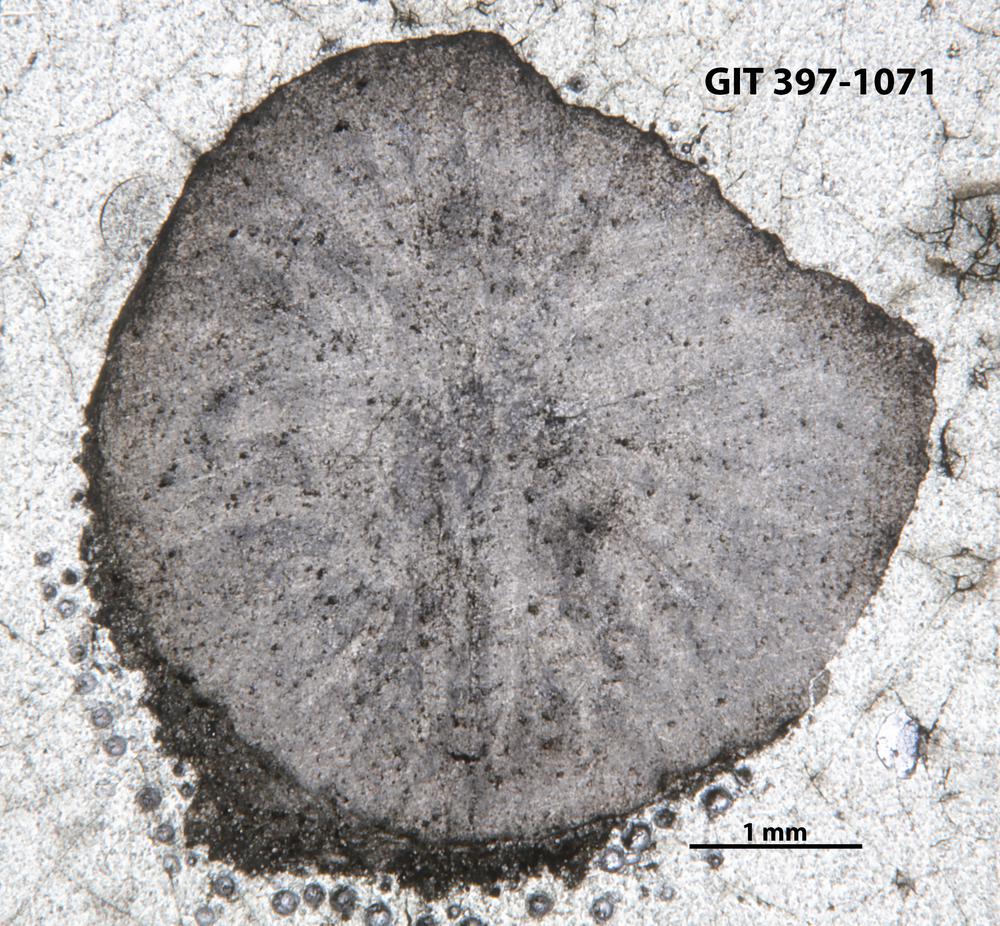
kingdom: Animalia
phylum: Cnidaria
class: Anthozoa
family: Streptelasmatidae
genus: Crassilasma
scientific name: Crassilasma
